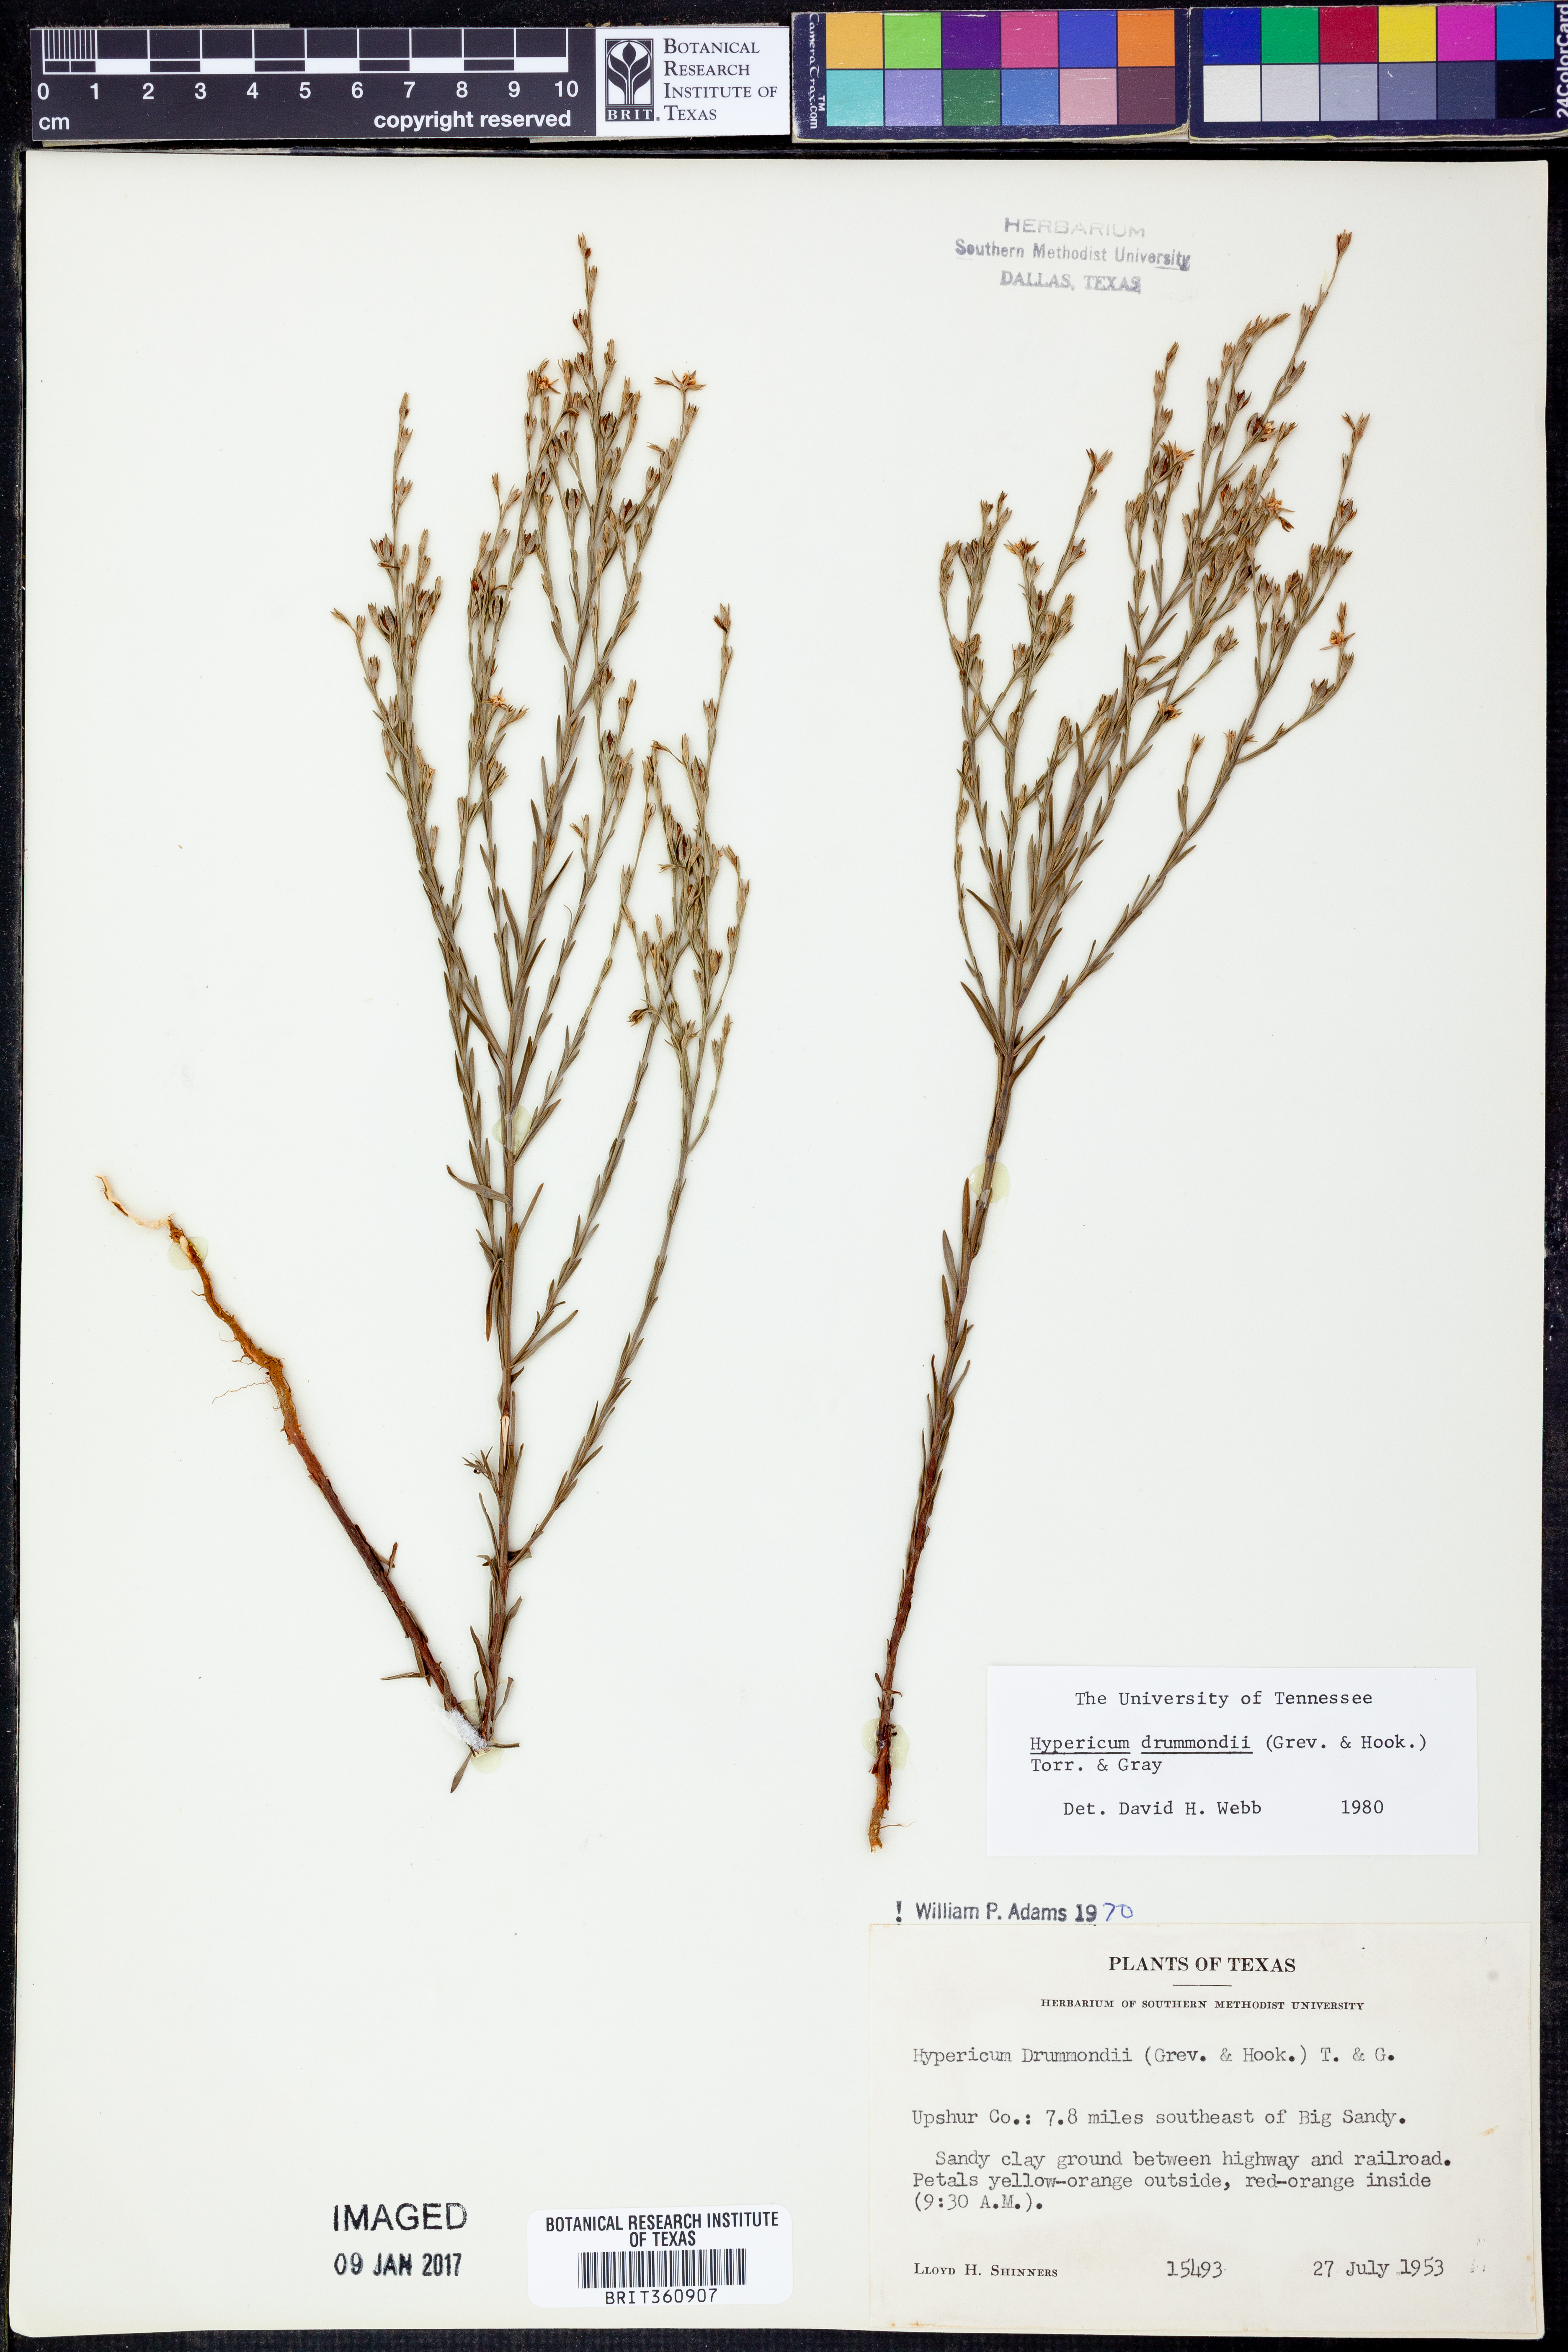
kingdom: Plantae
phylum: Tracheophyta
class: Magnoliopsida
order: Malpighiales
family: Hypericaceae
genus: Hypericum
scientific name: Hypericum drummondii
